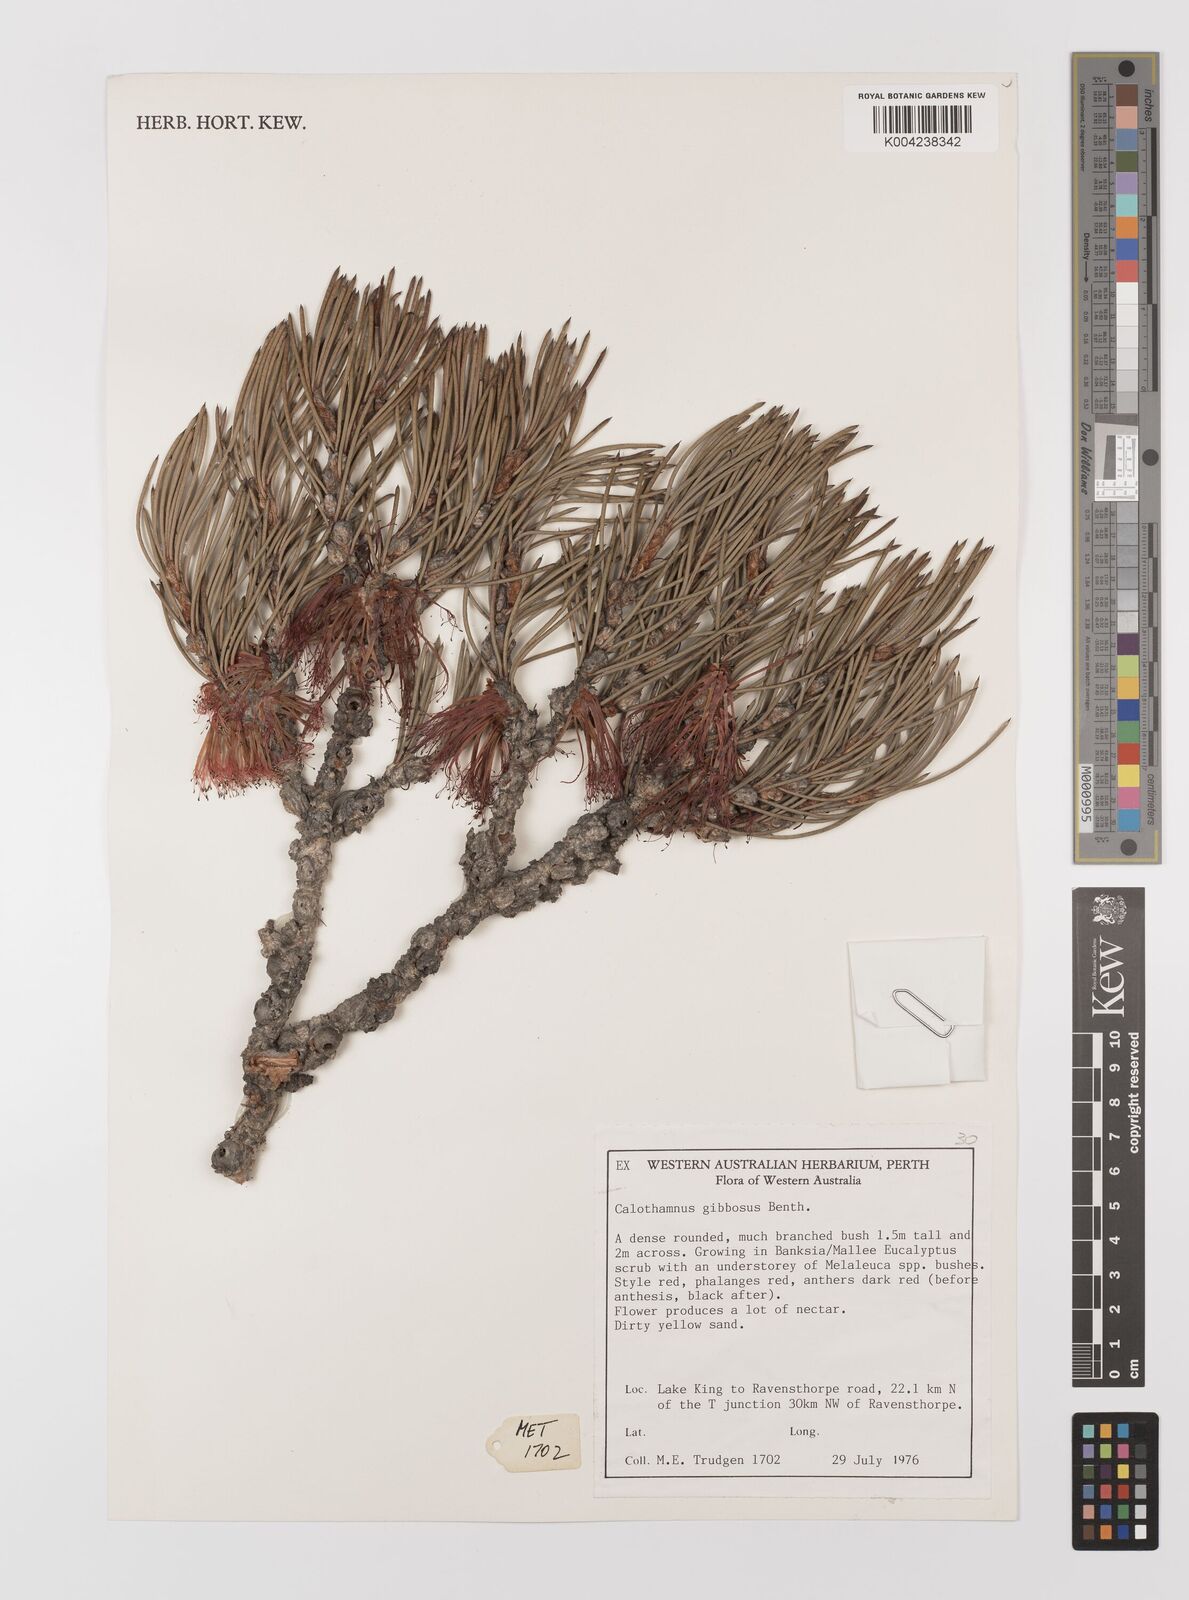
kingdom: Plantae
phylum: Tracheophyta
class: Magnoliopsida
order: Myrtales
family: Myrtaceae
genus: Melaleuca
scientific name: Melaleuca protumida
